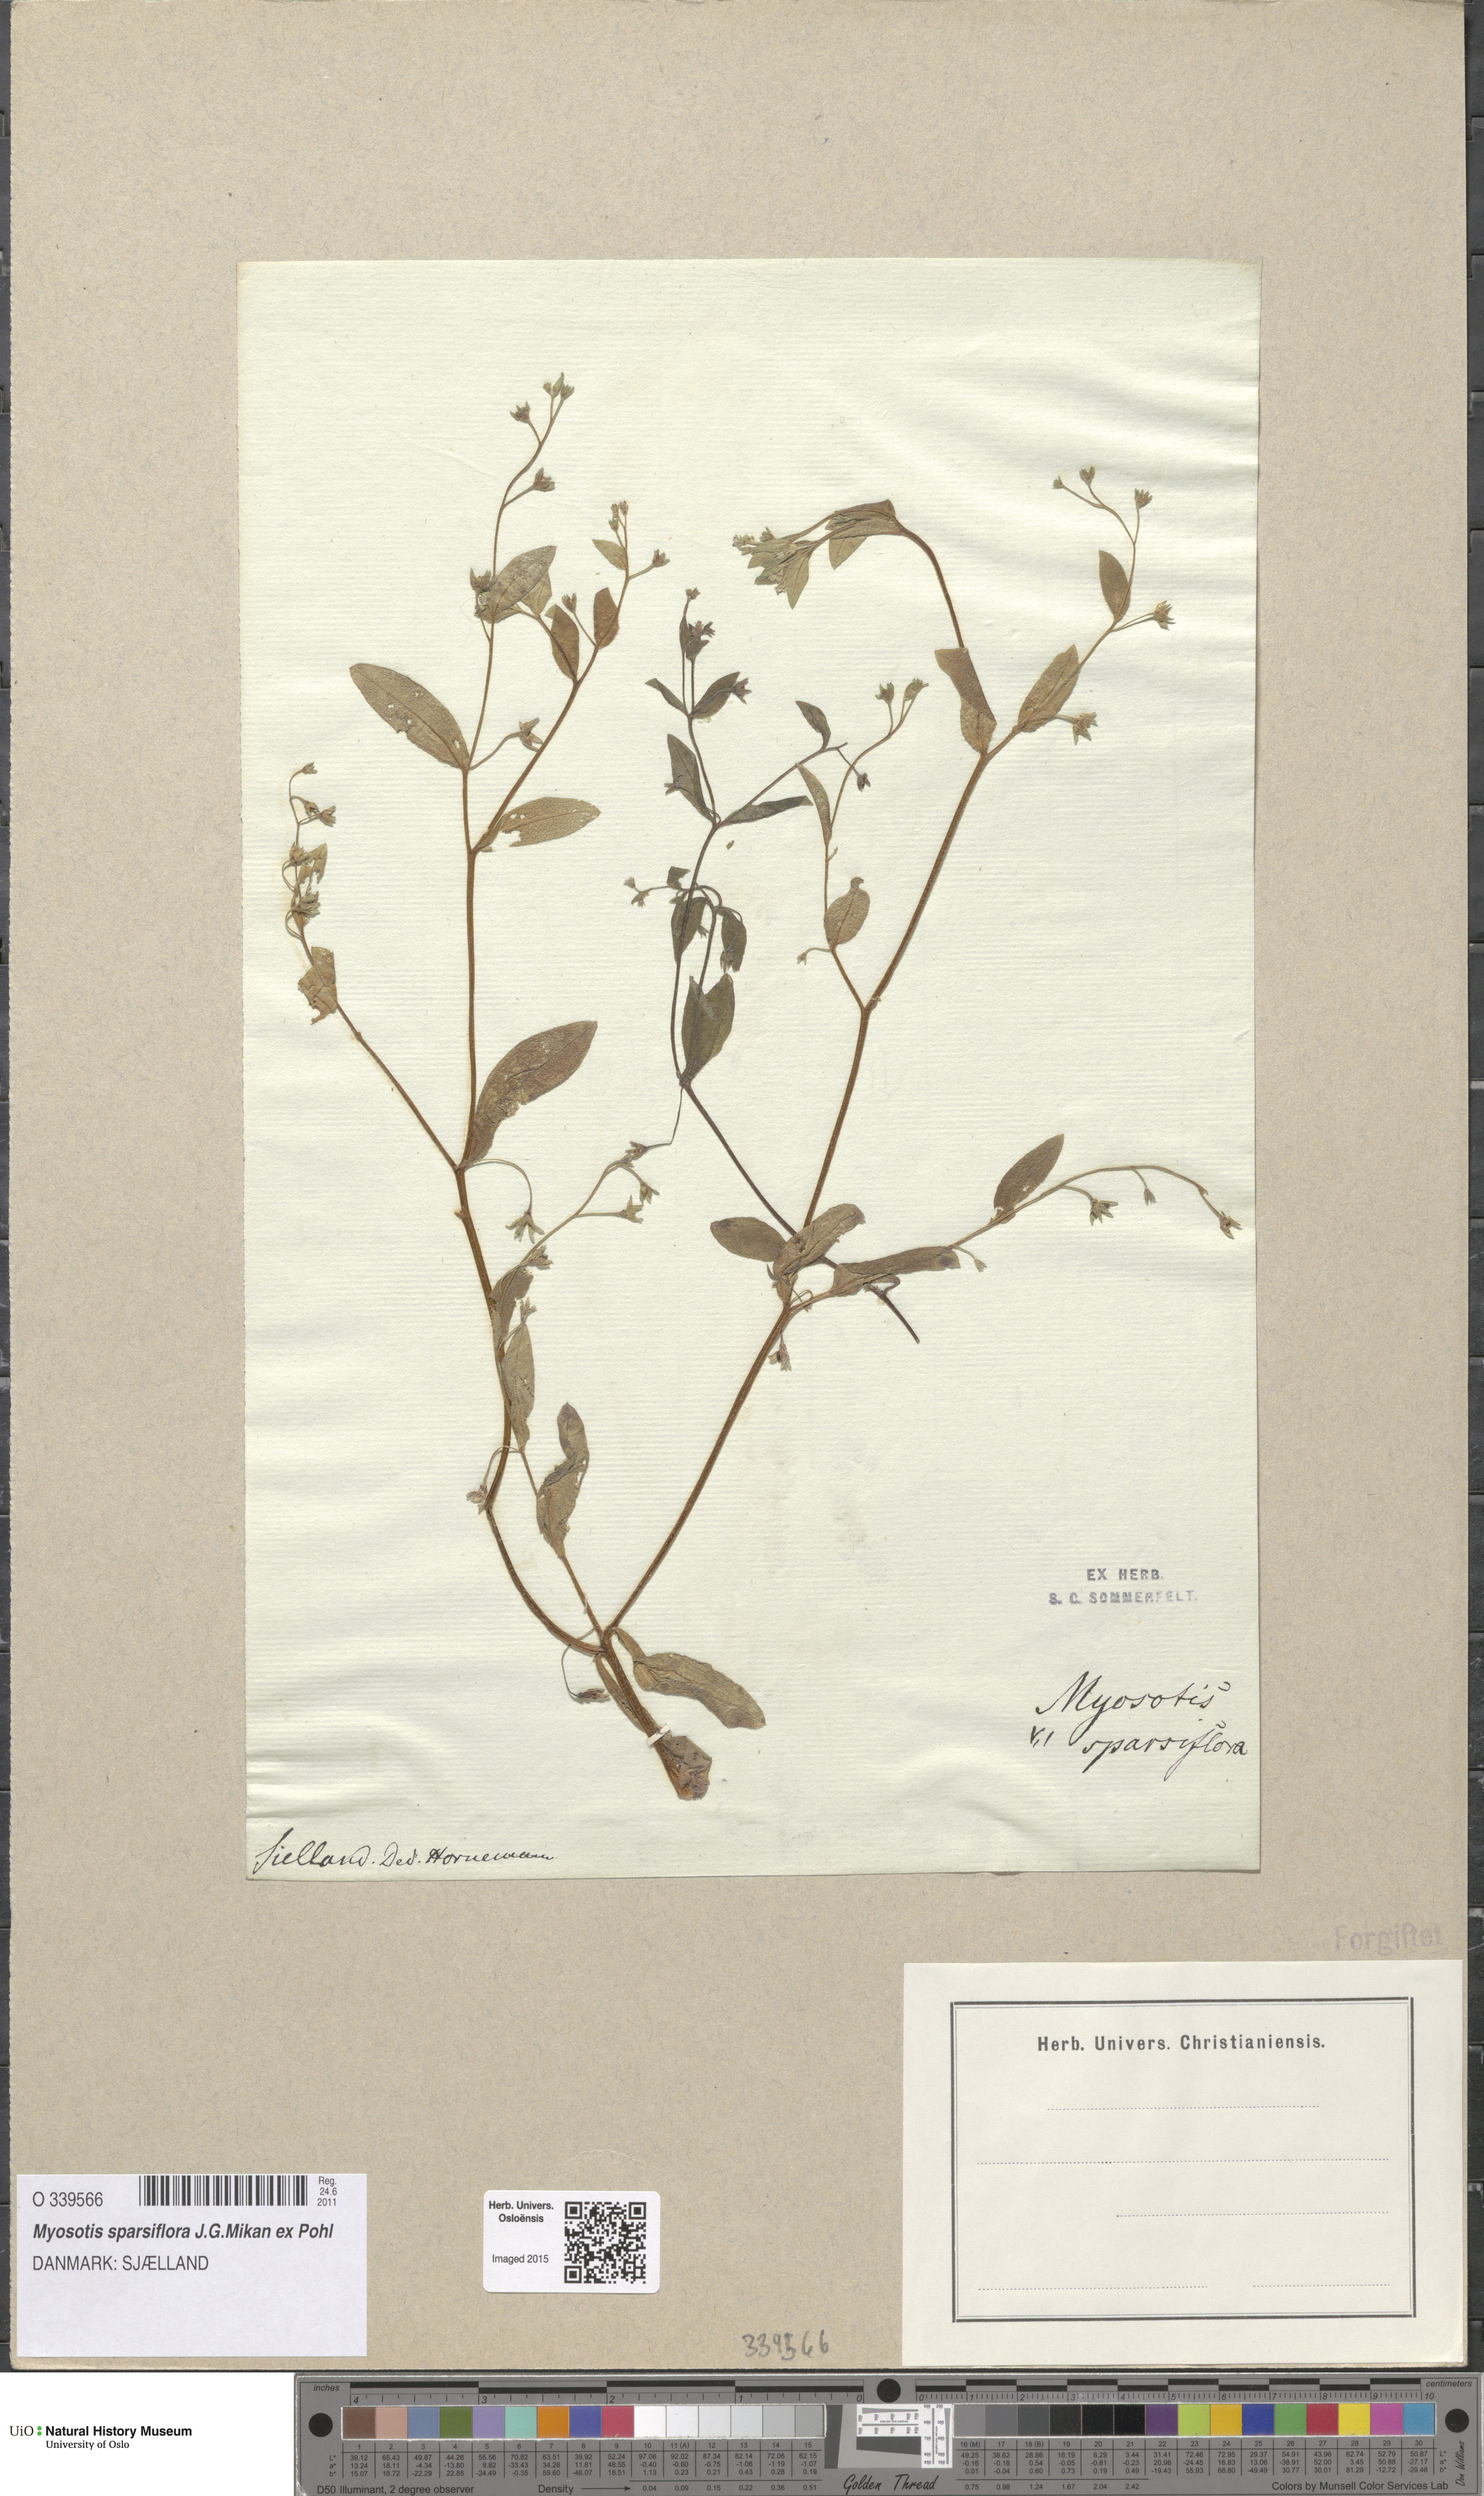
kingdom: Plantae
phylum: Tracheophyta
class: Magnoliopsida
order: Boraginales
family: Boraginaceae
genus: Myosotis
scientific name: Myosotis sparsiflora
